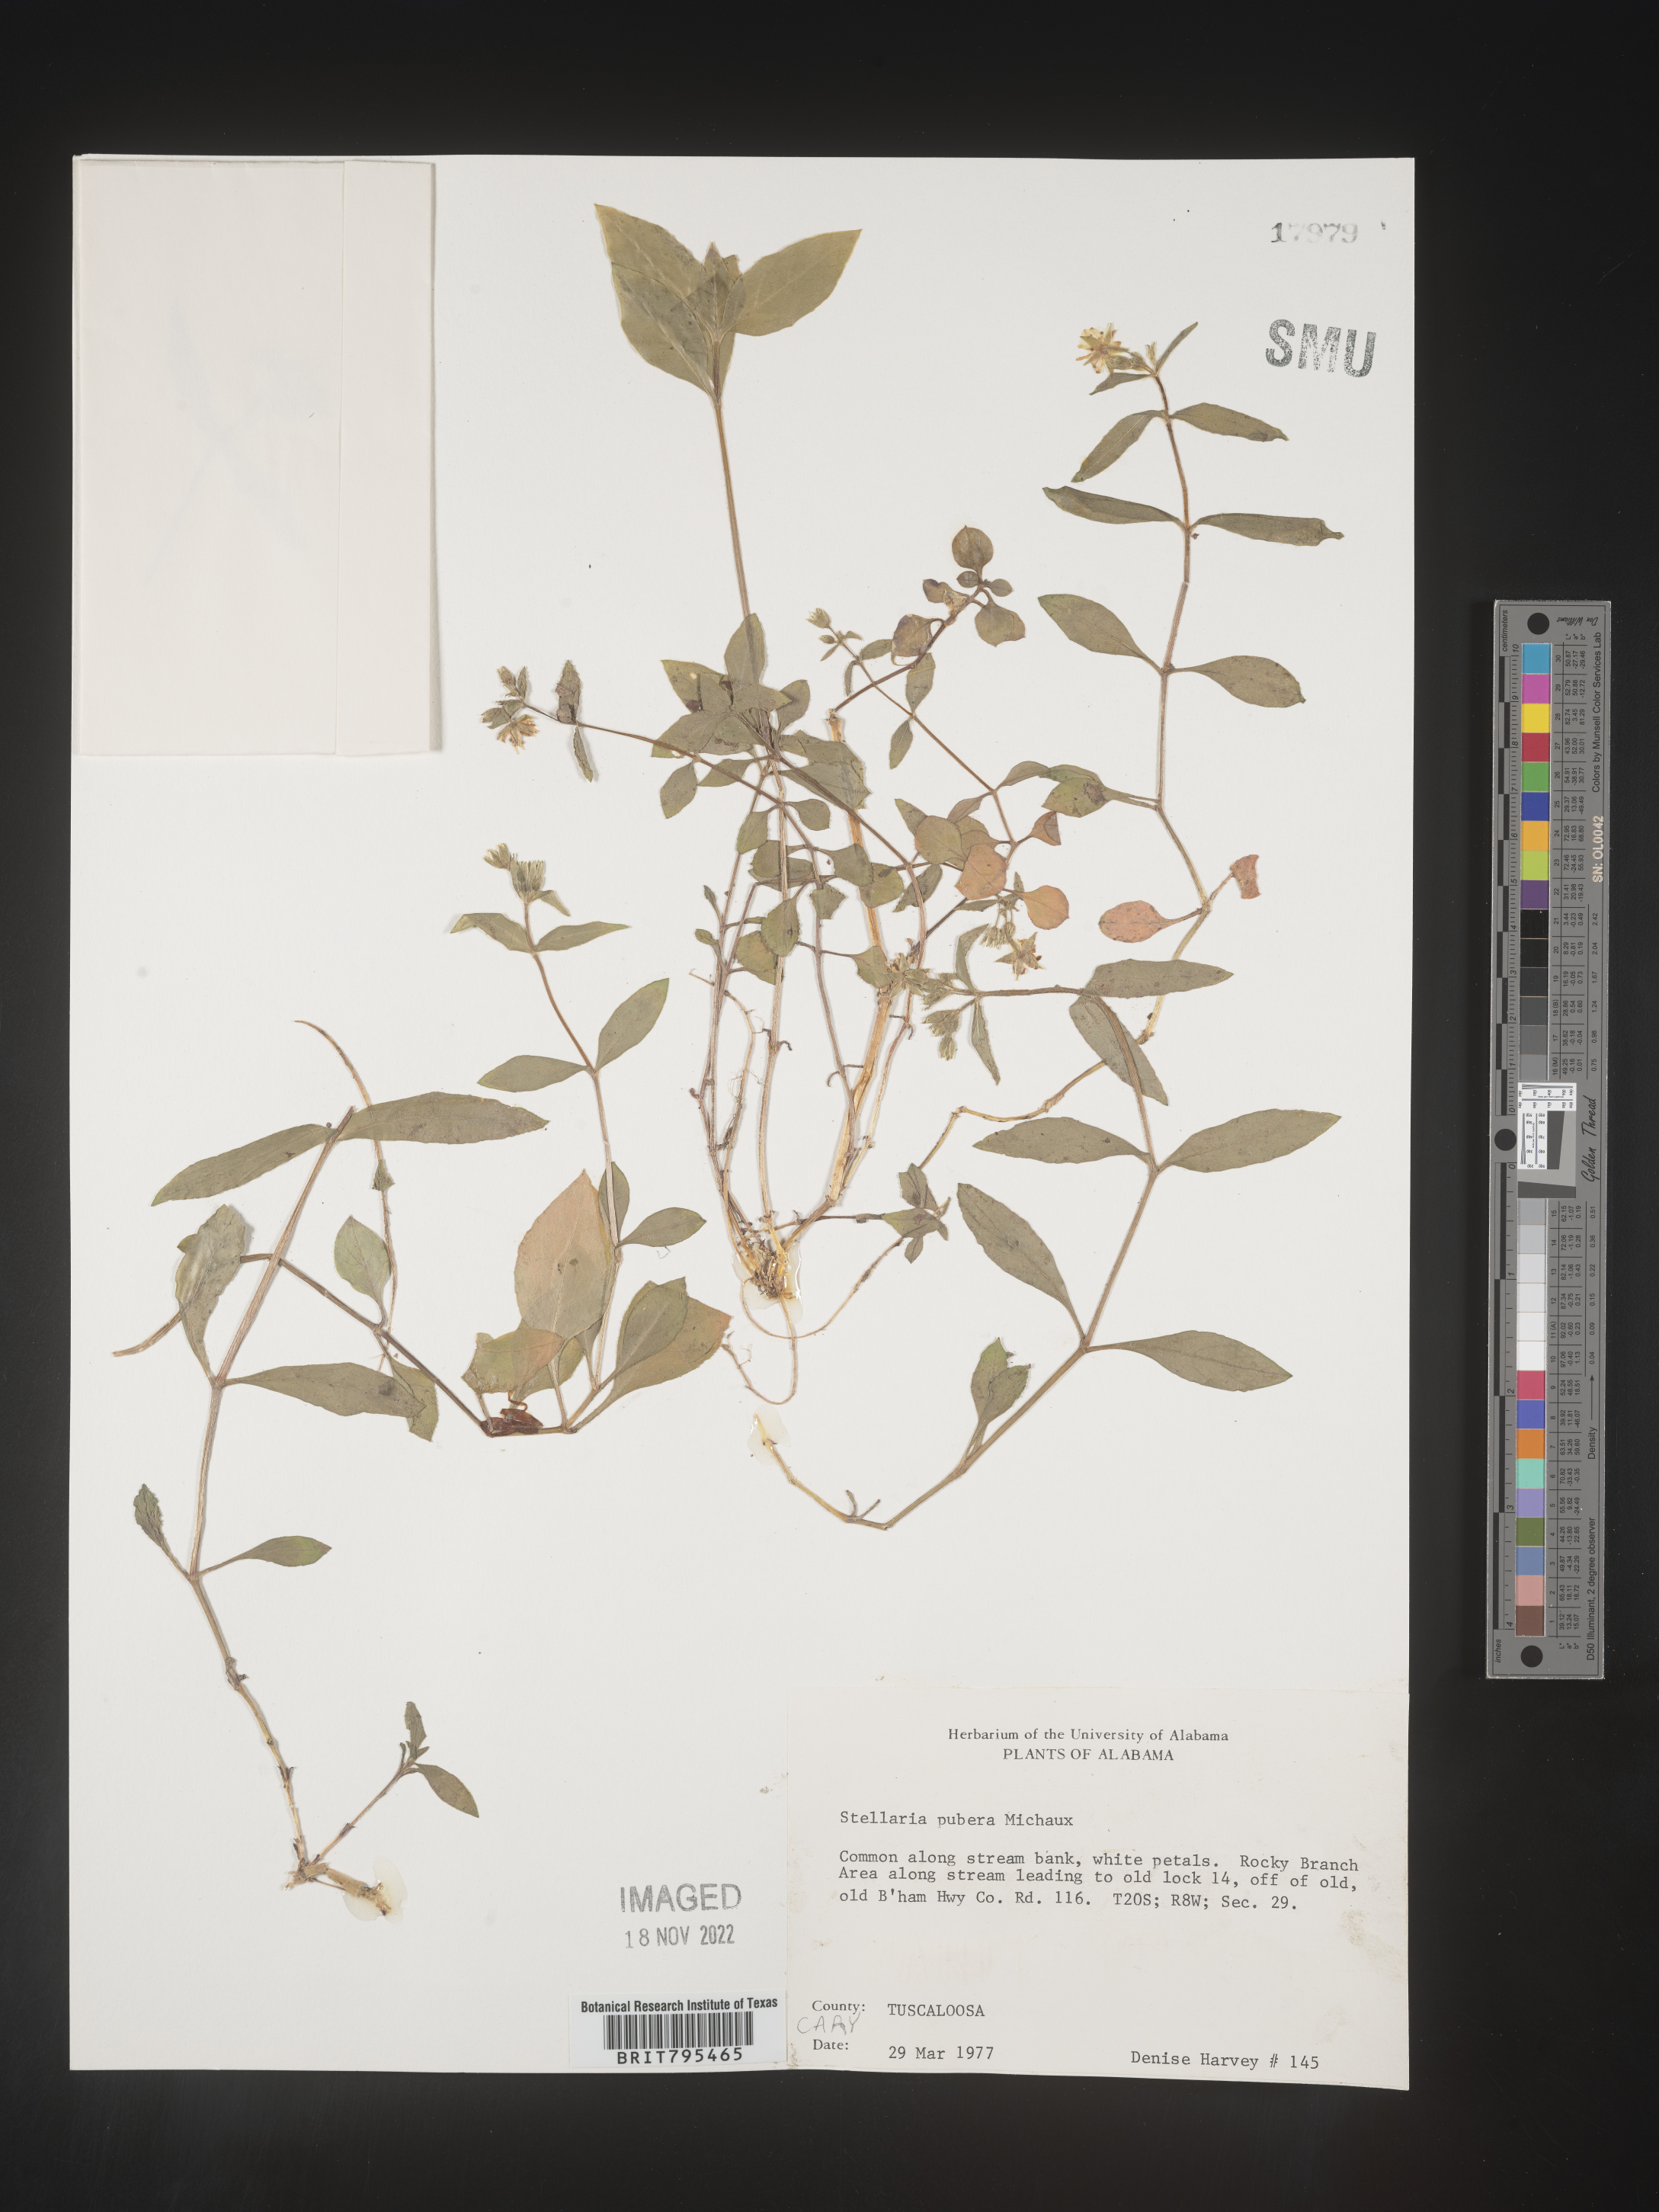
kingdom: Plantae
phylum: Tracheophyta
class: Magnoliopsida
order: Caryophyllales
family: Caryophyllaceae
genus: Stellaria
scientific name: Stellaria pubera
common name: Star chickweed
